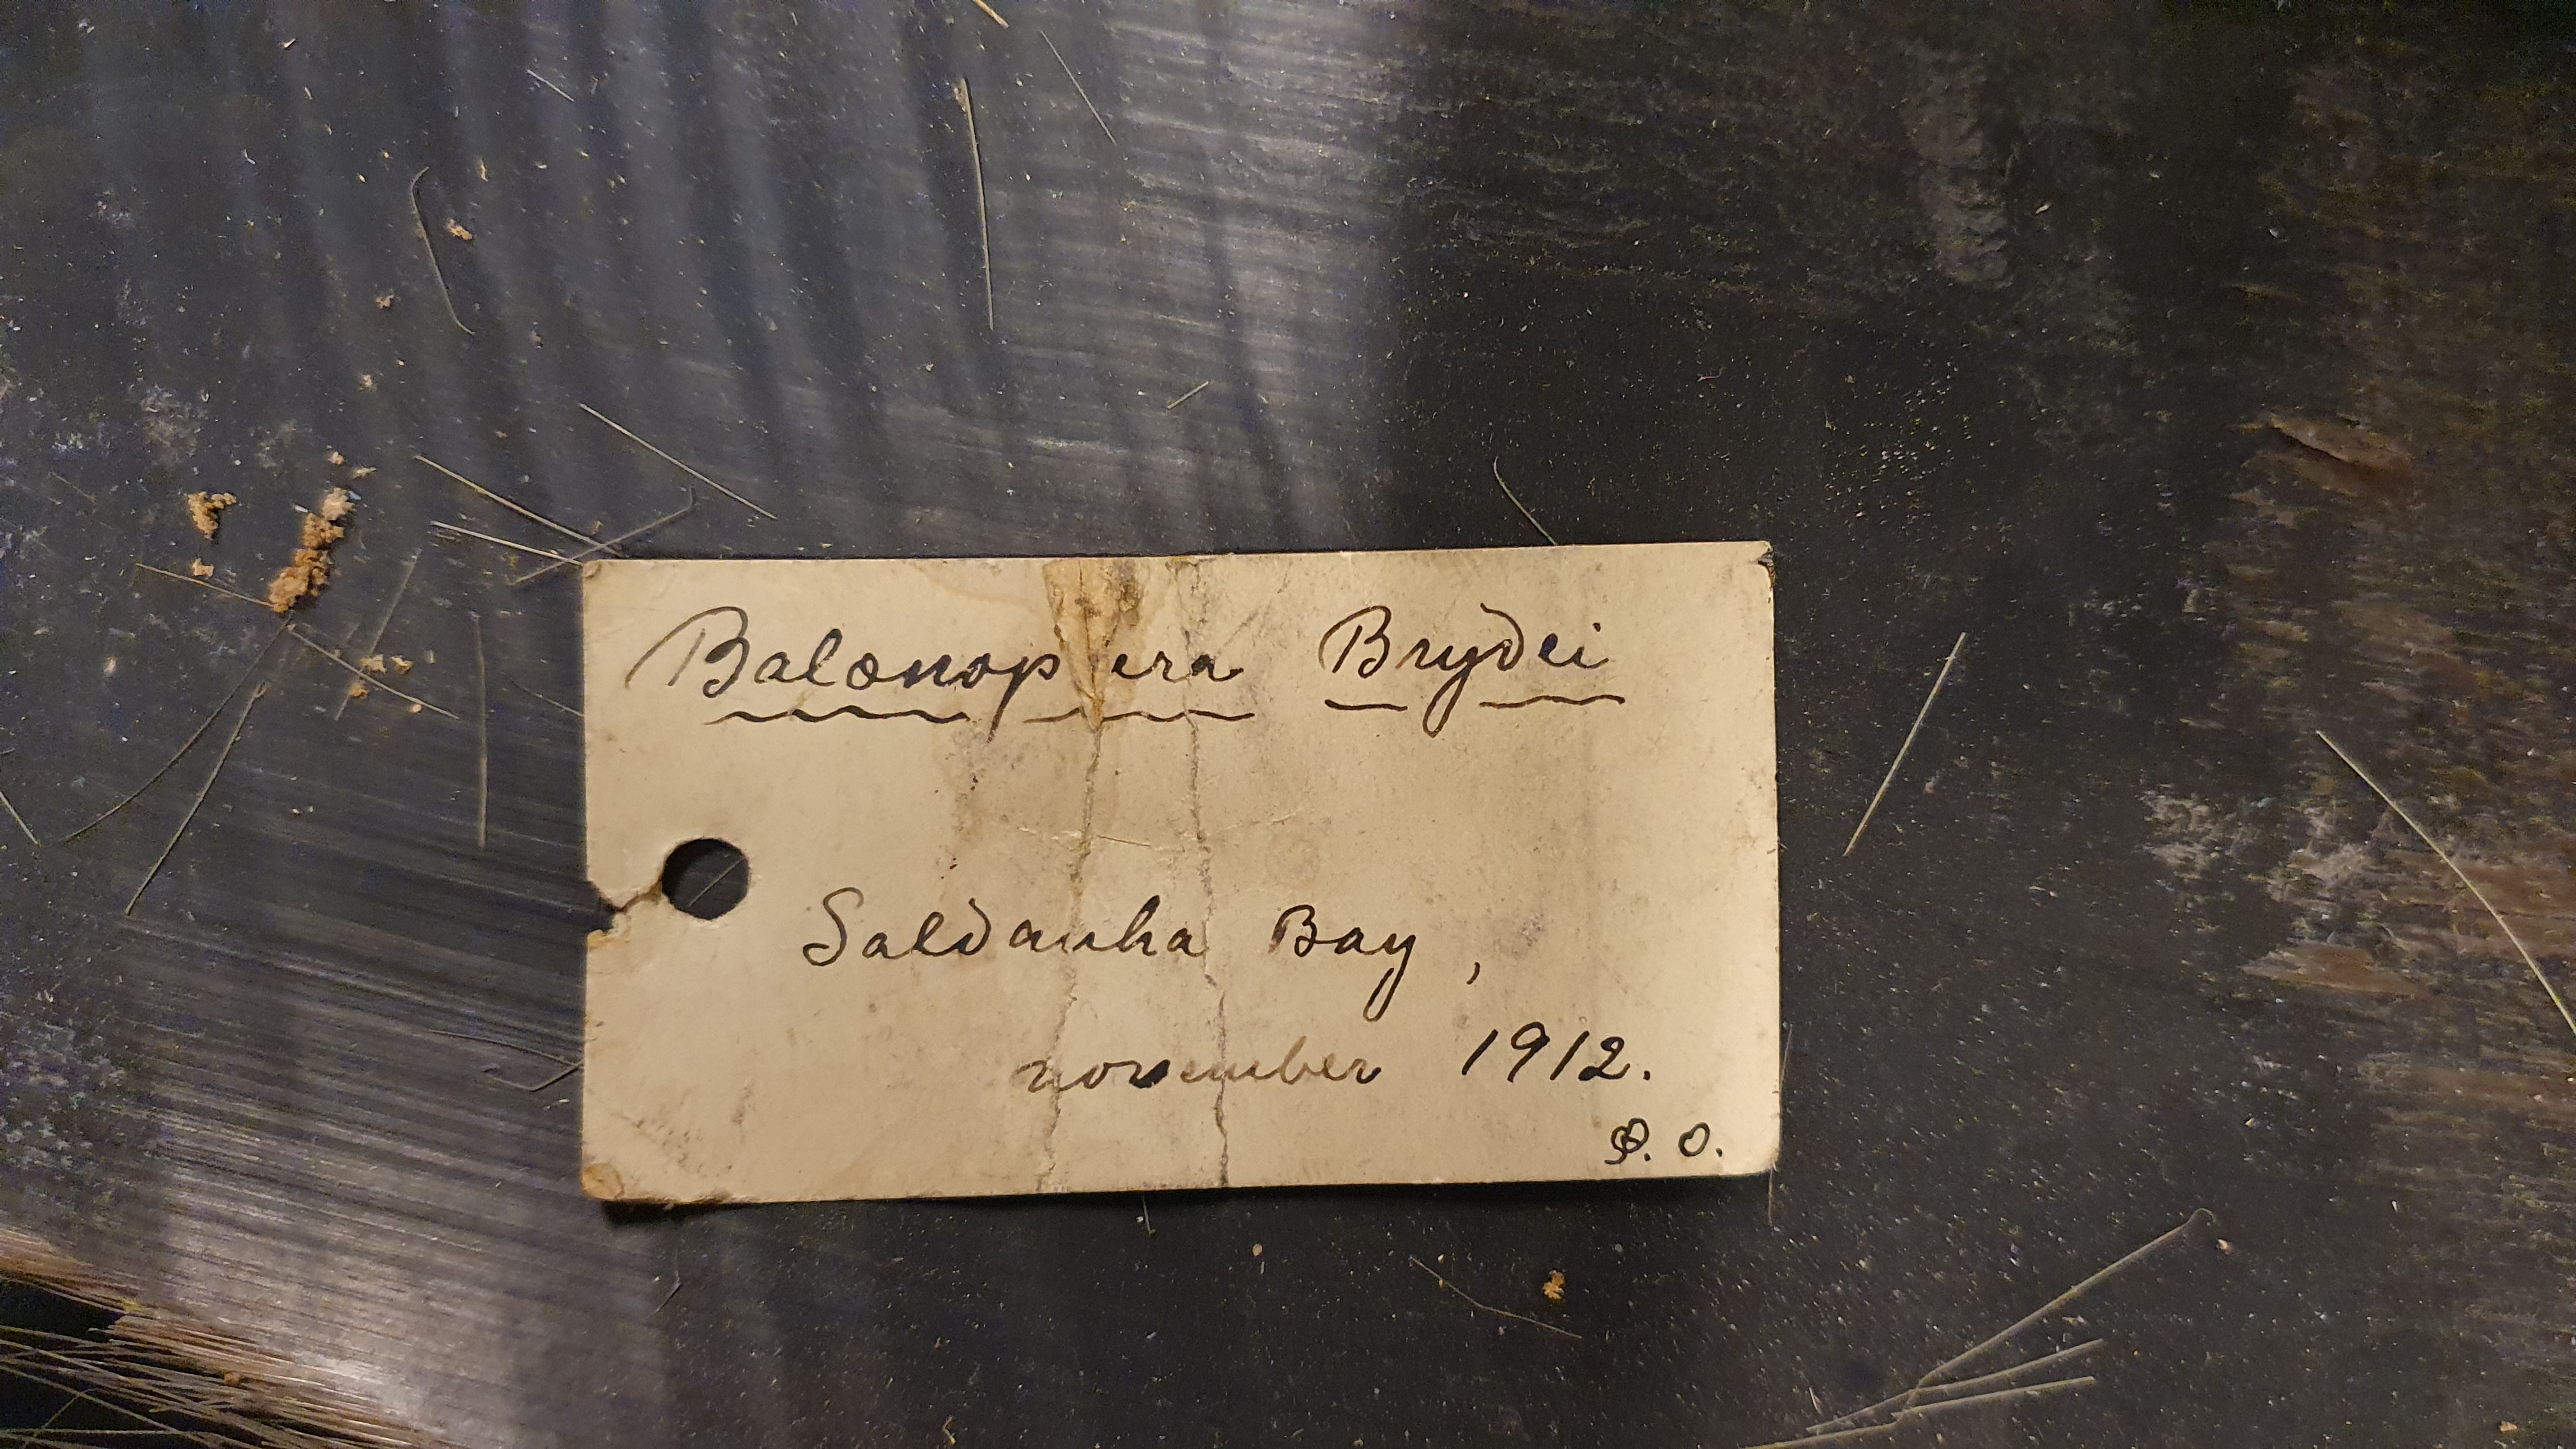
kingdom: Animalia
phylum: Chordata
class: Mammalia
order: Cetacea
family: Balaenopteridae
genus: Balaenoptera
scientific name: Balaenoptera edeni
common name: Bryde's whale
